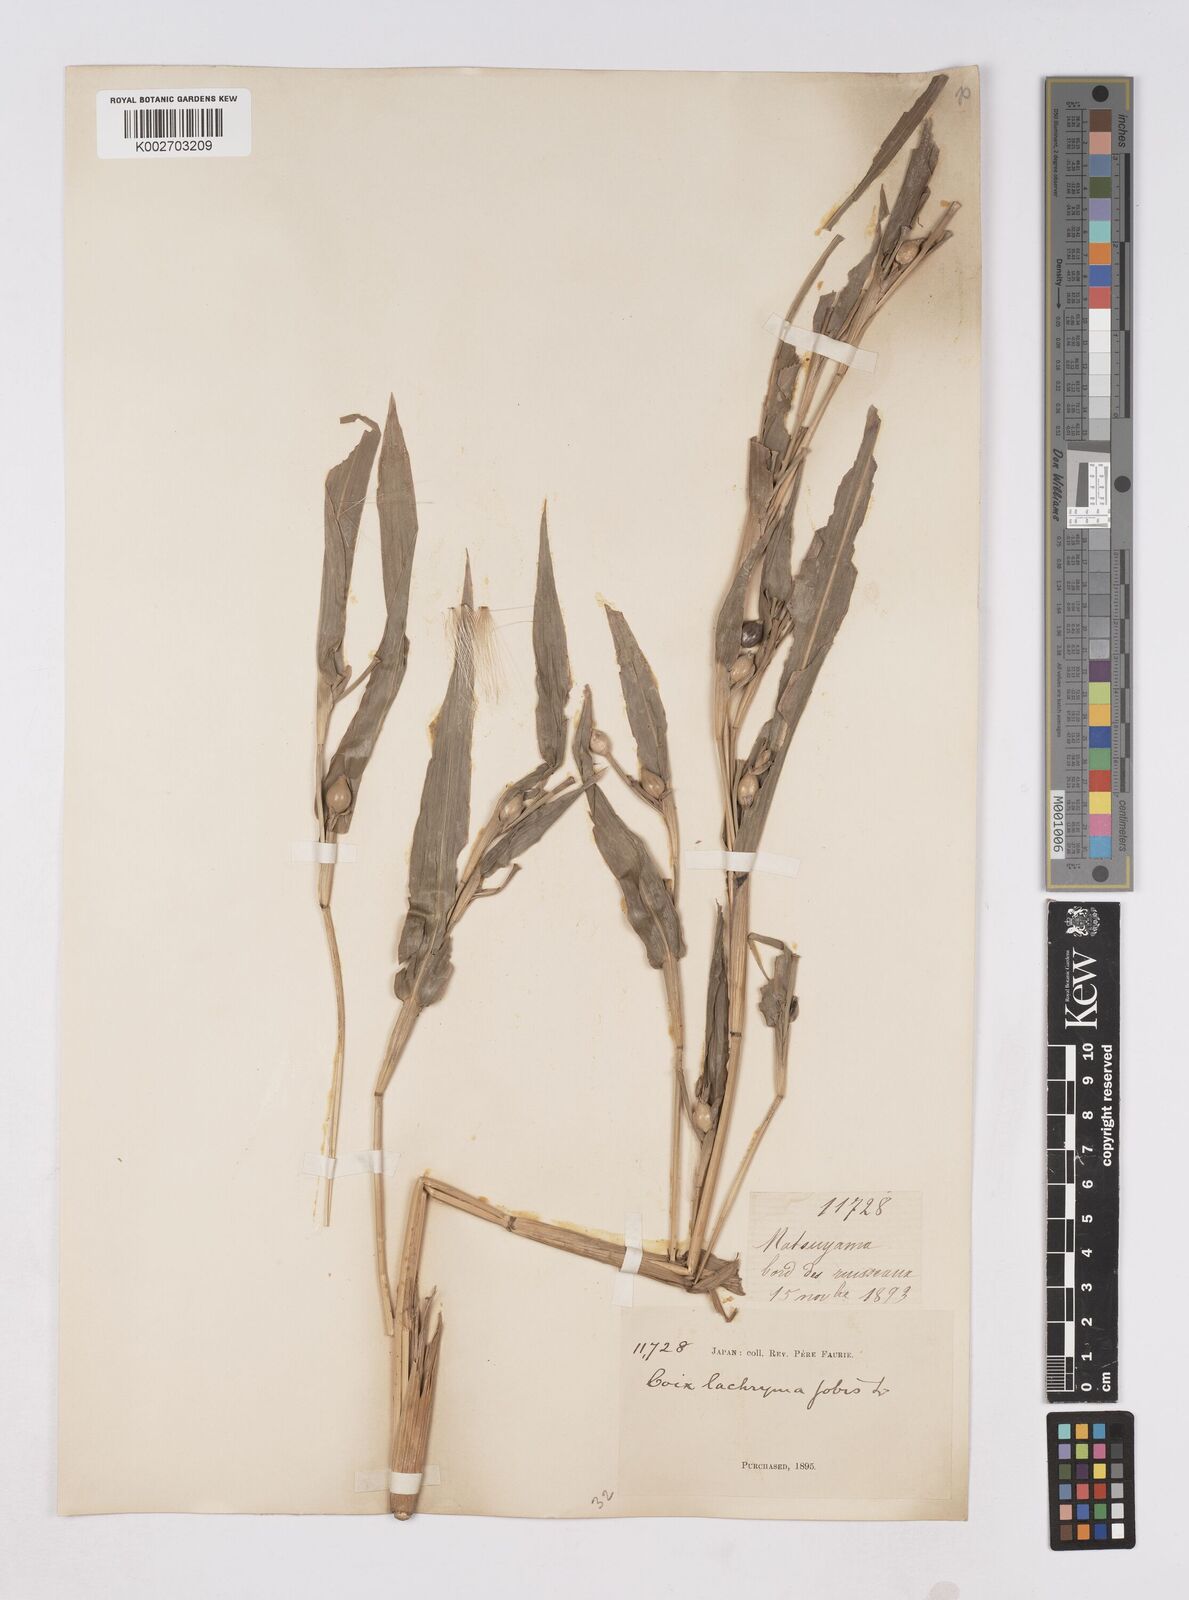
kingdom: Plantae
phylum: Tracheophyta
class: Liliopsida
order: Poales
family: Poaceae
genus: Coix
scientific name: Coix lacryma-jobi
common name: Job's tears
